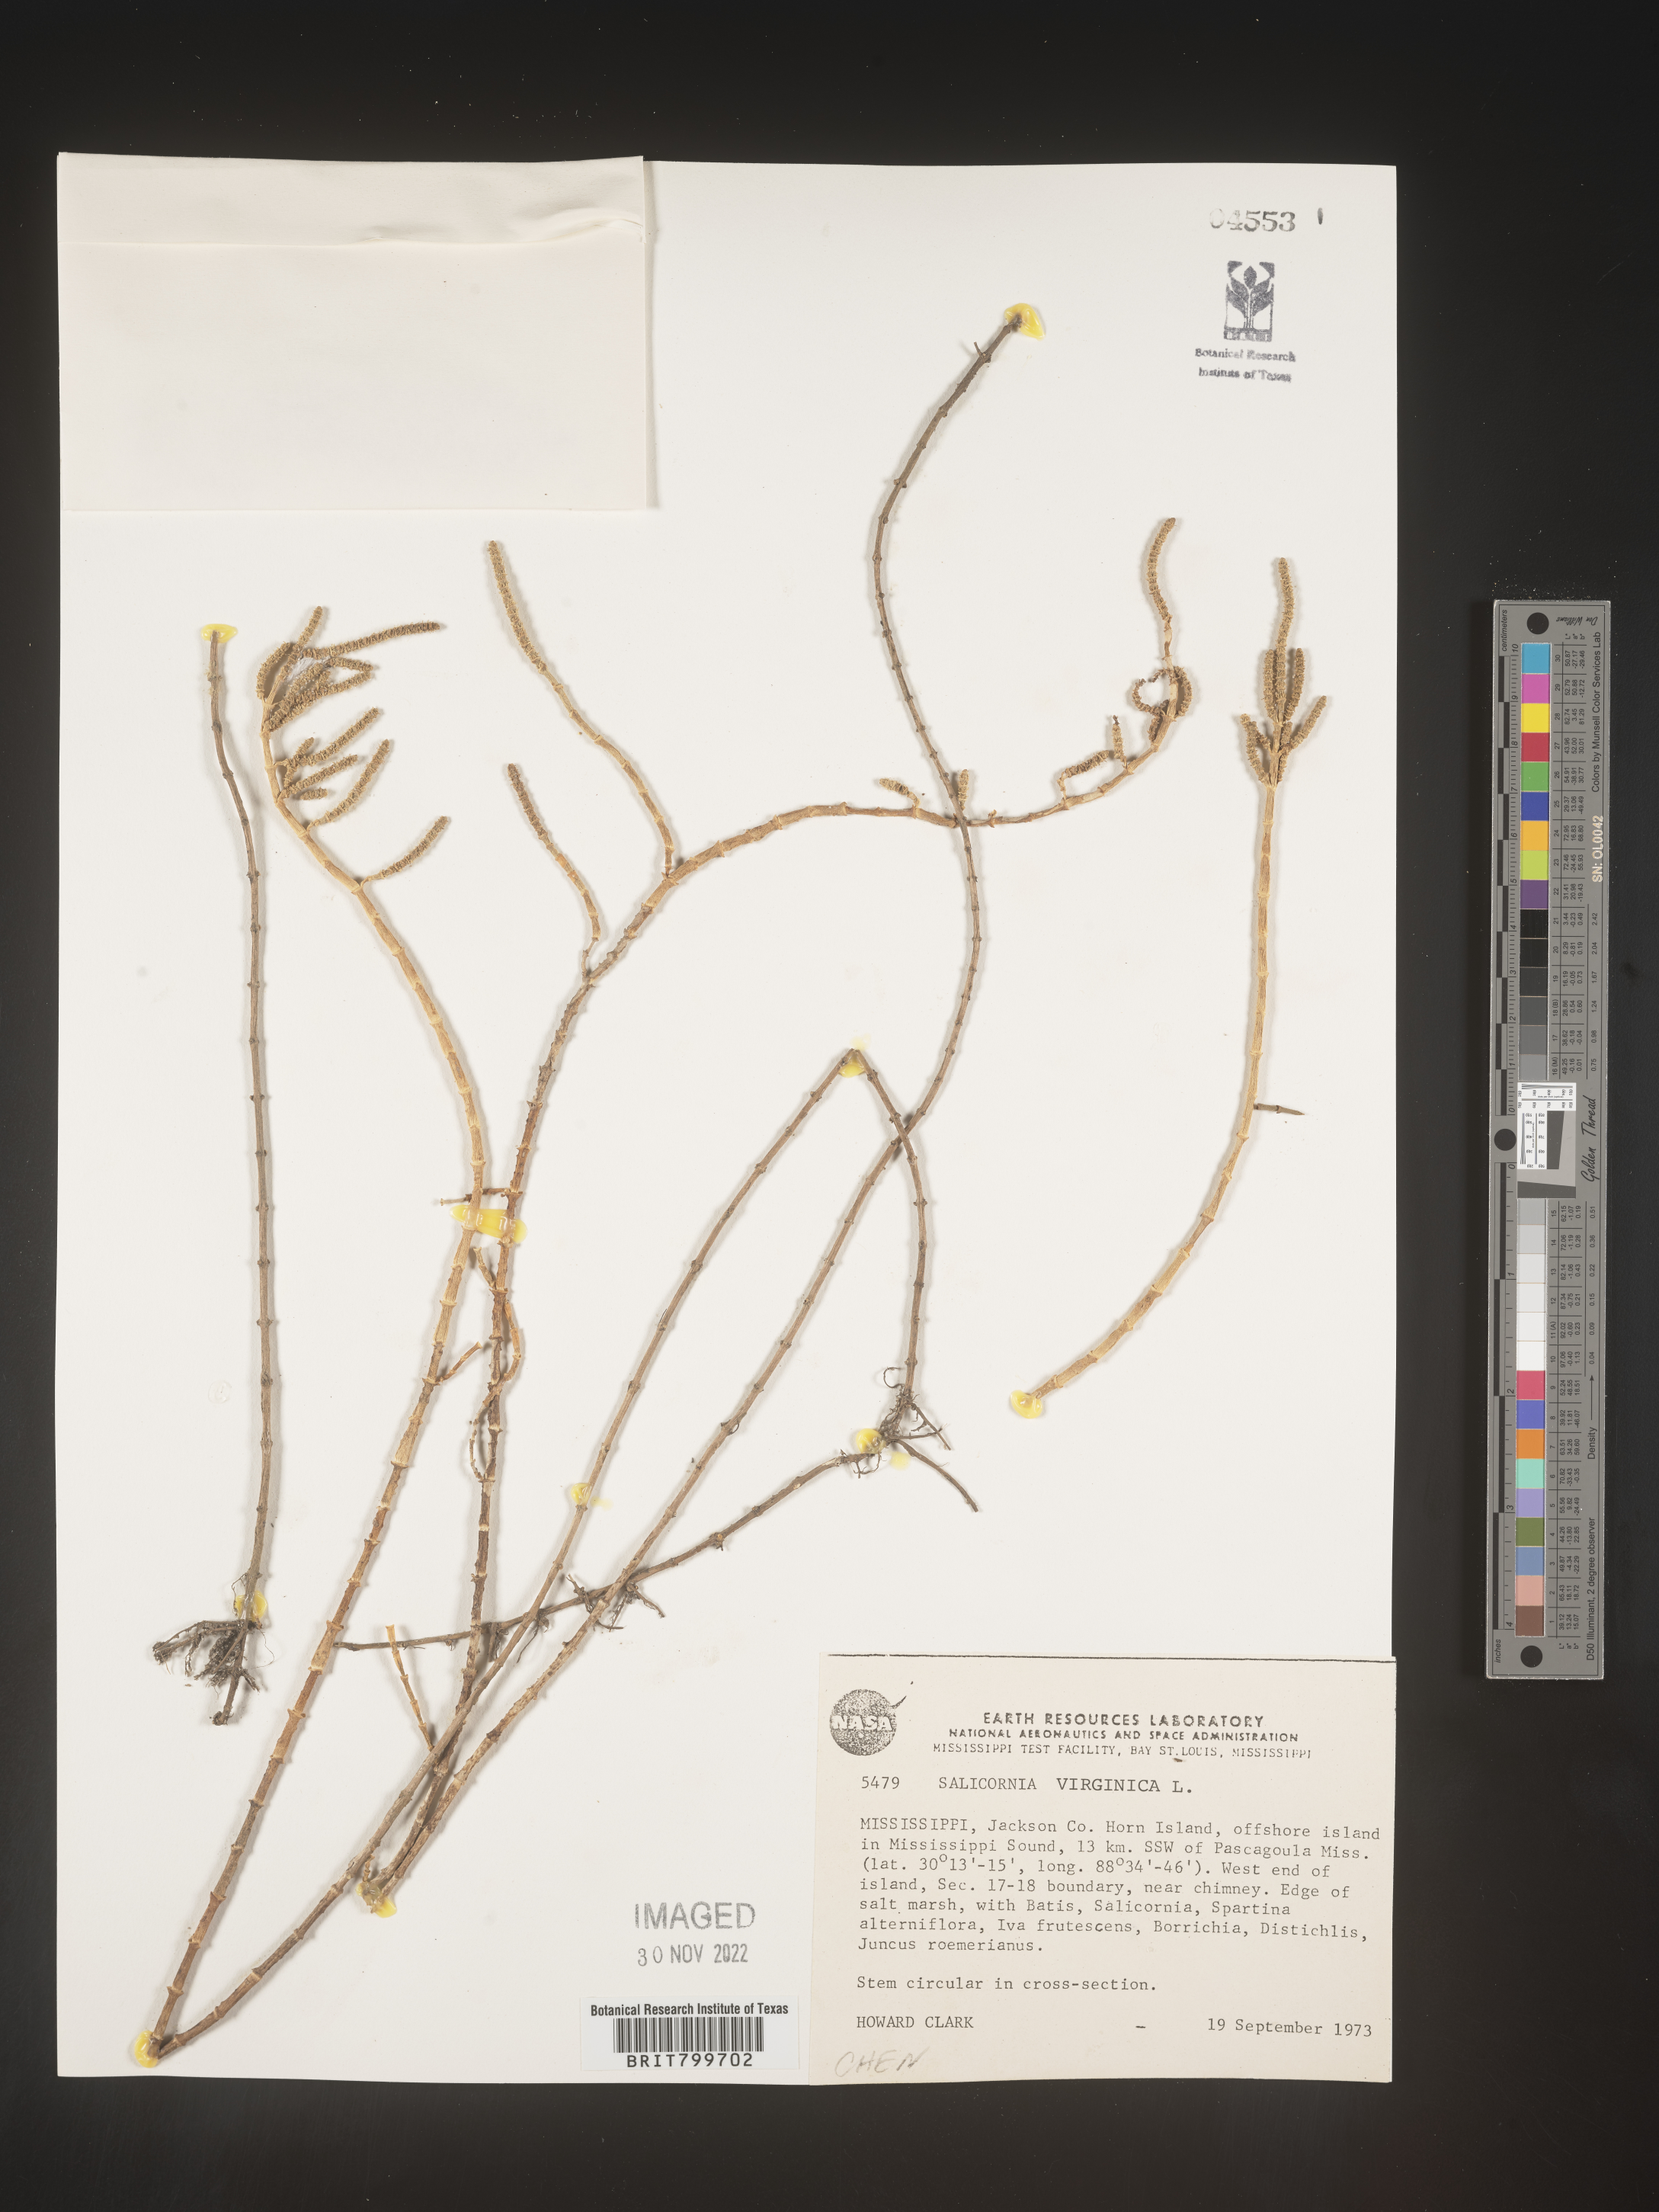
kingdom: Plantae
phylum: Tracheophyta
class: Magnoliopsida
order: Caryophyllales
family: Amaranthaceae
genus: Salicornia
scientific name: Salicornia virginica
